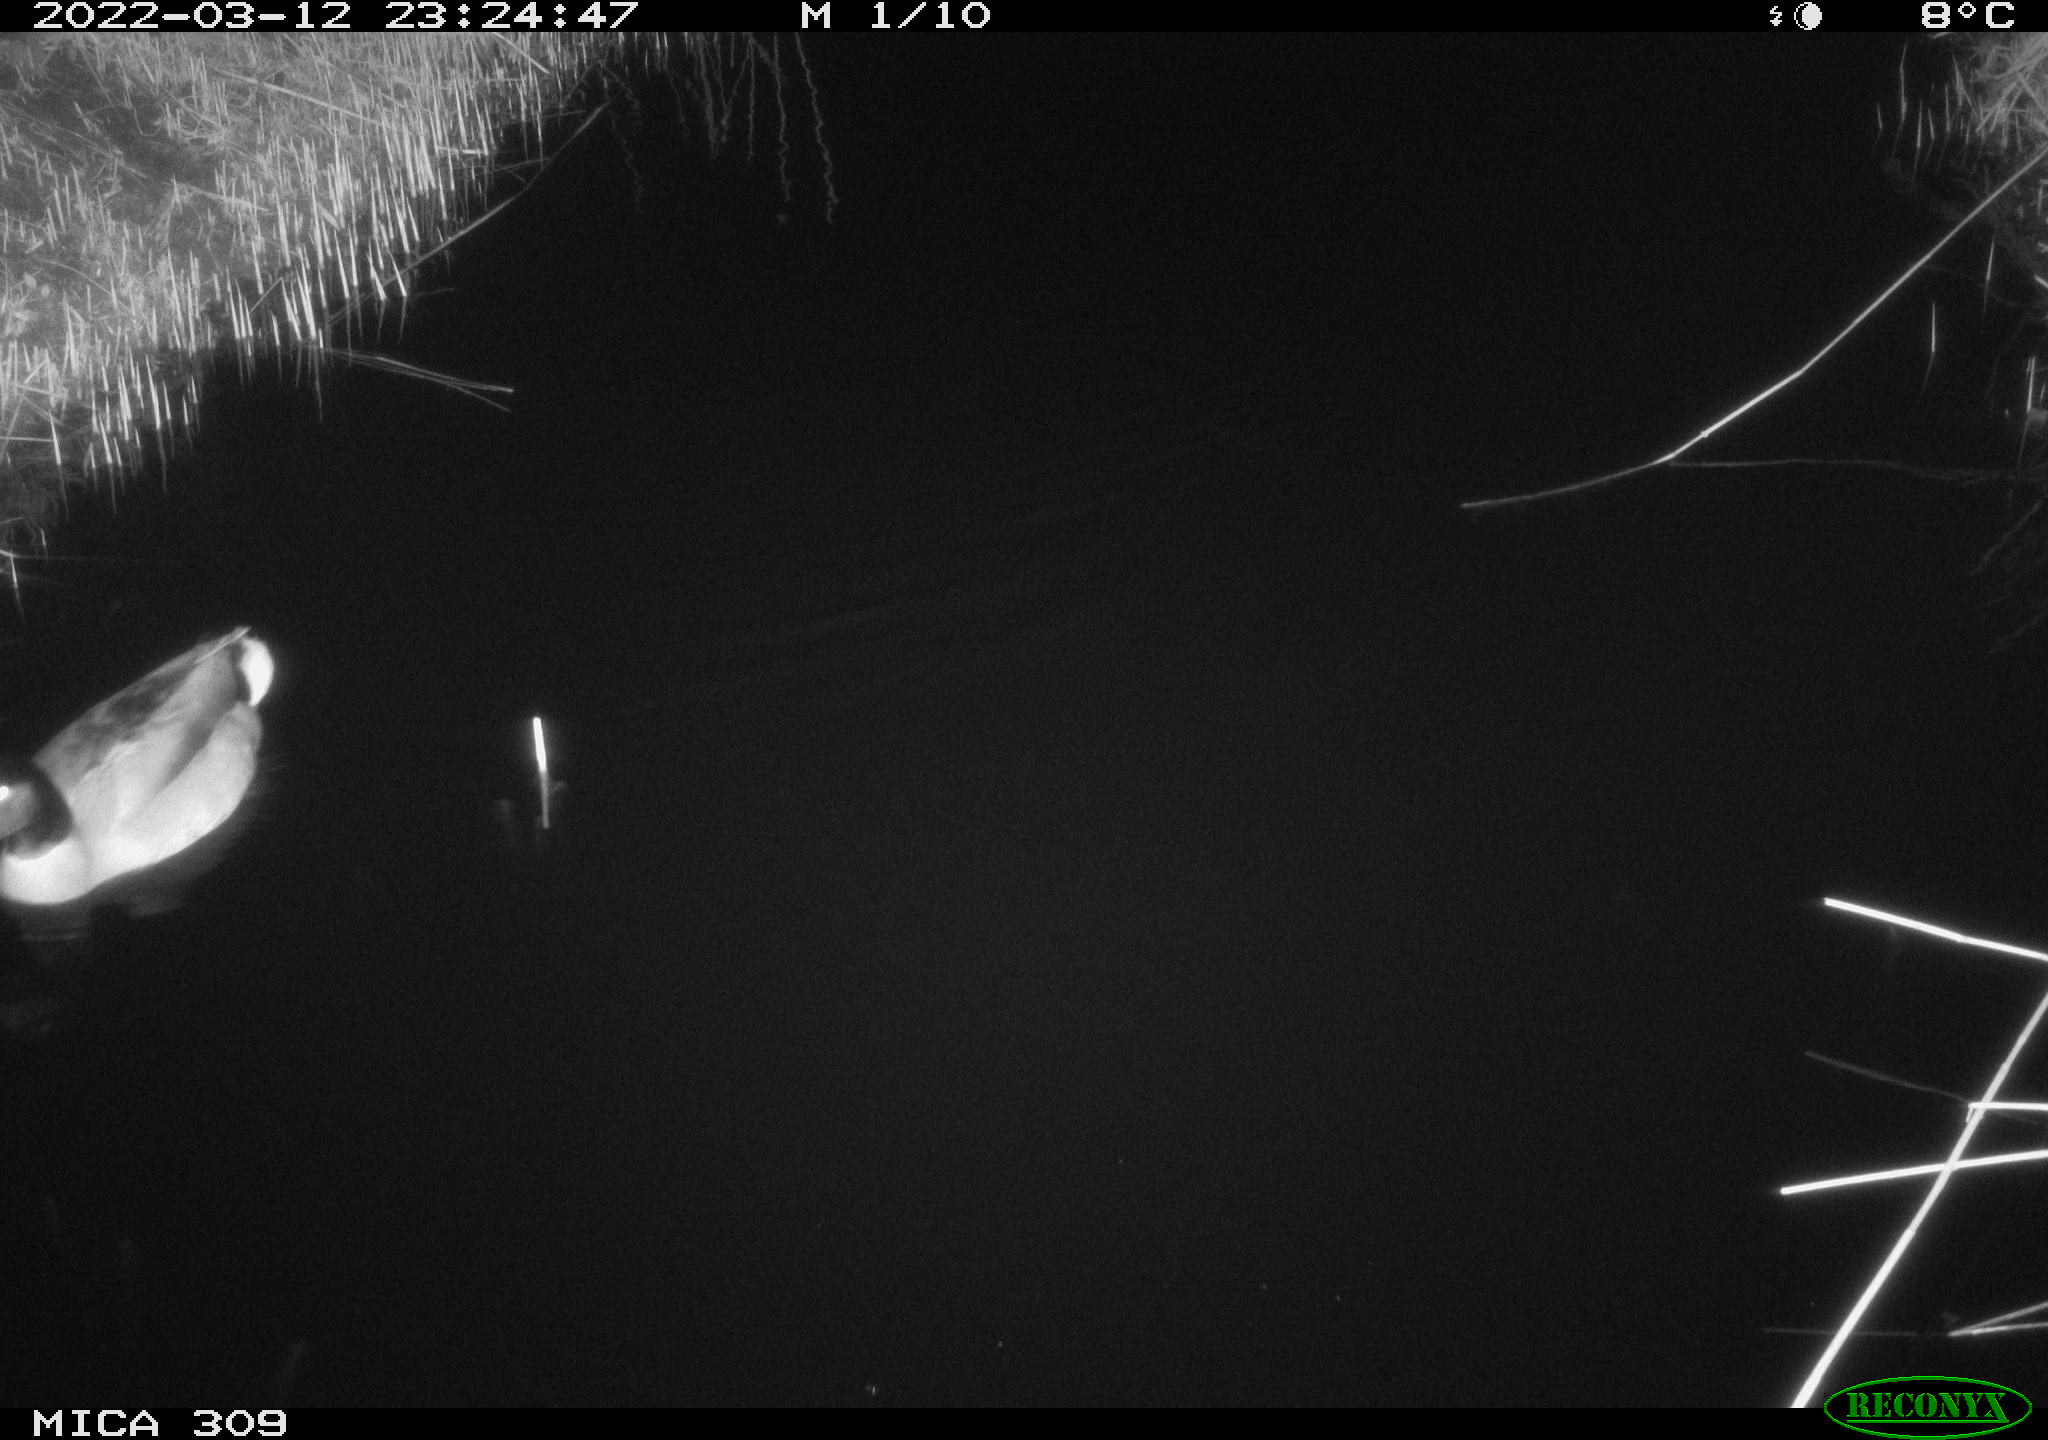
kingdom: Animalia
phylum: Chordata
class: Aves
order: Anseriformes
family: Anatidae
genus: Anas
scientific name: Anas platyrhynchos
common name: Mallard
